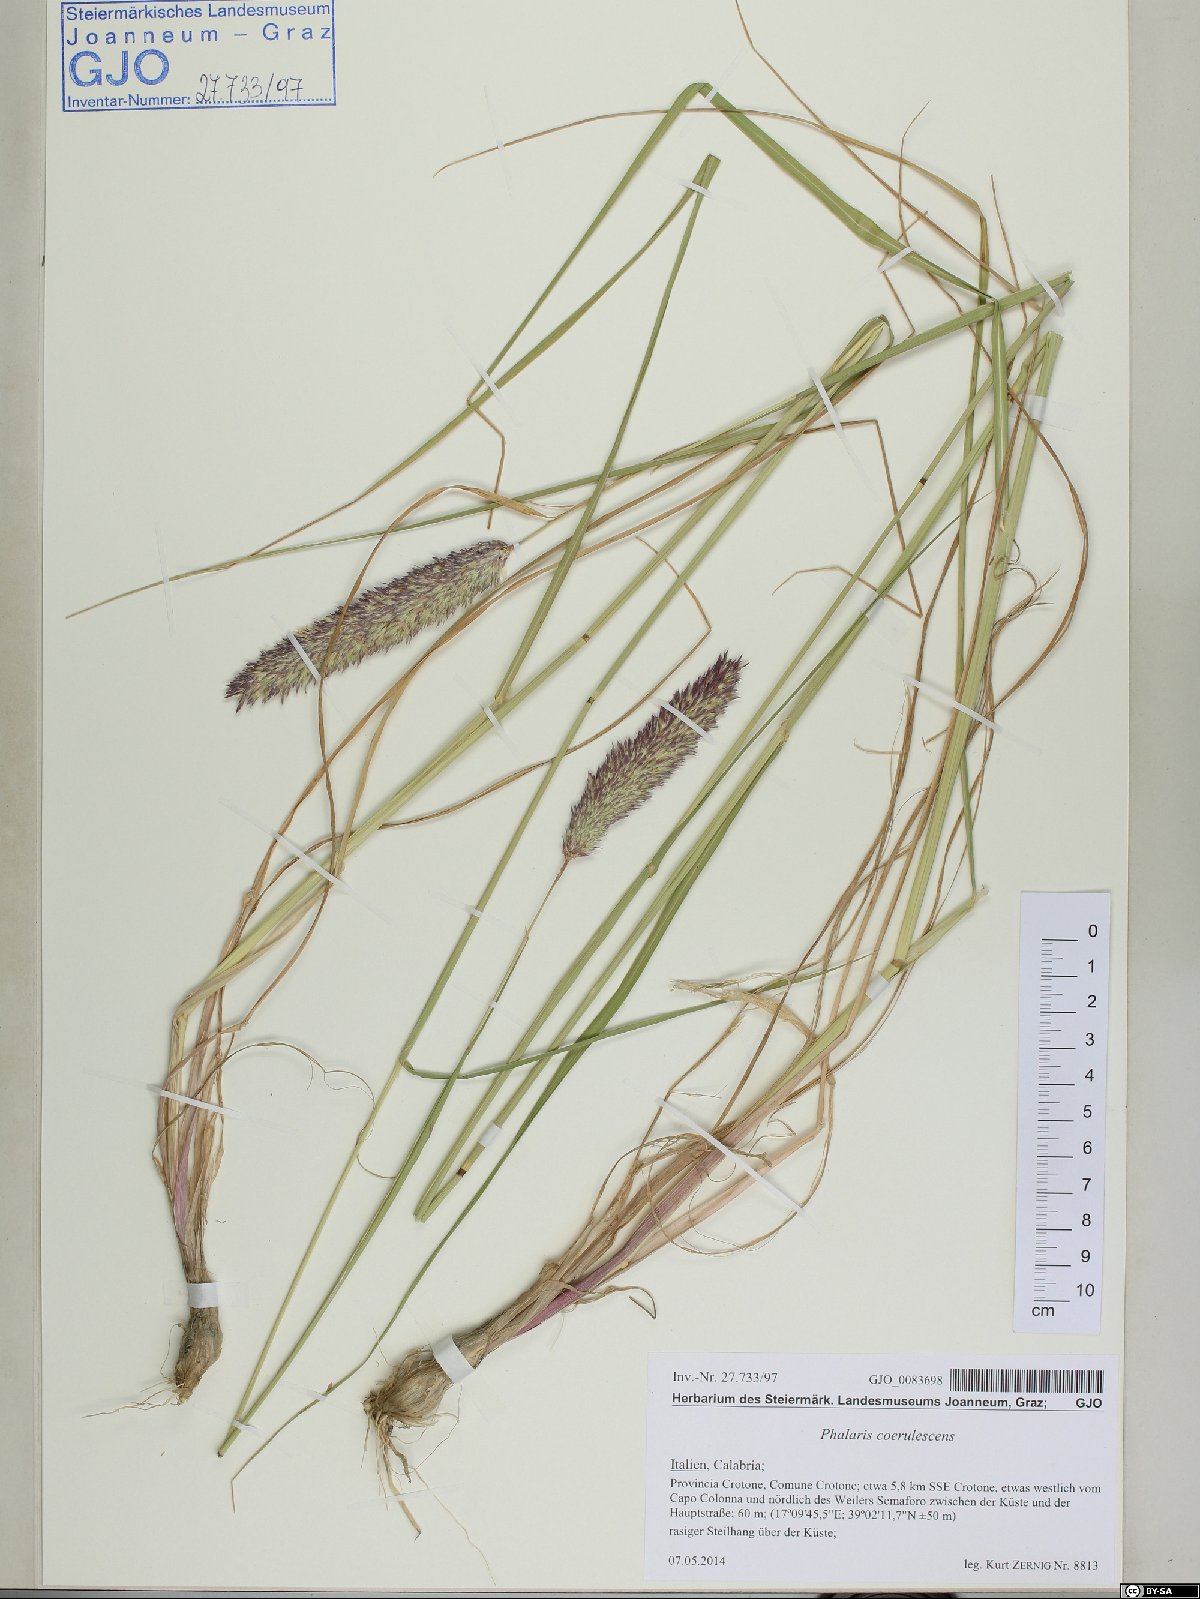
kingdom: Plantae
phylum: Tracheophyta
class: Liliopsida
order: Poales
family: Poaceae
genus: Phalaris
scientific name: Phalaris coerulescens
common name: Sunolgrass
